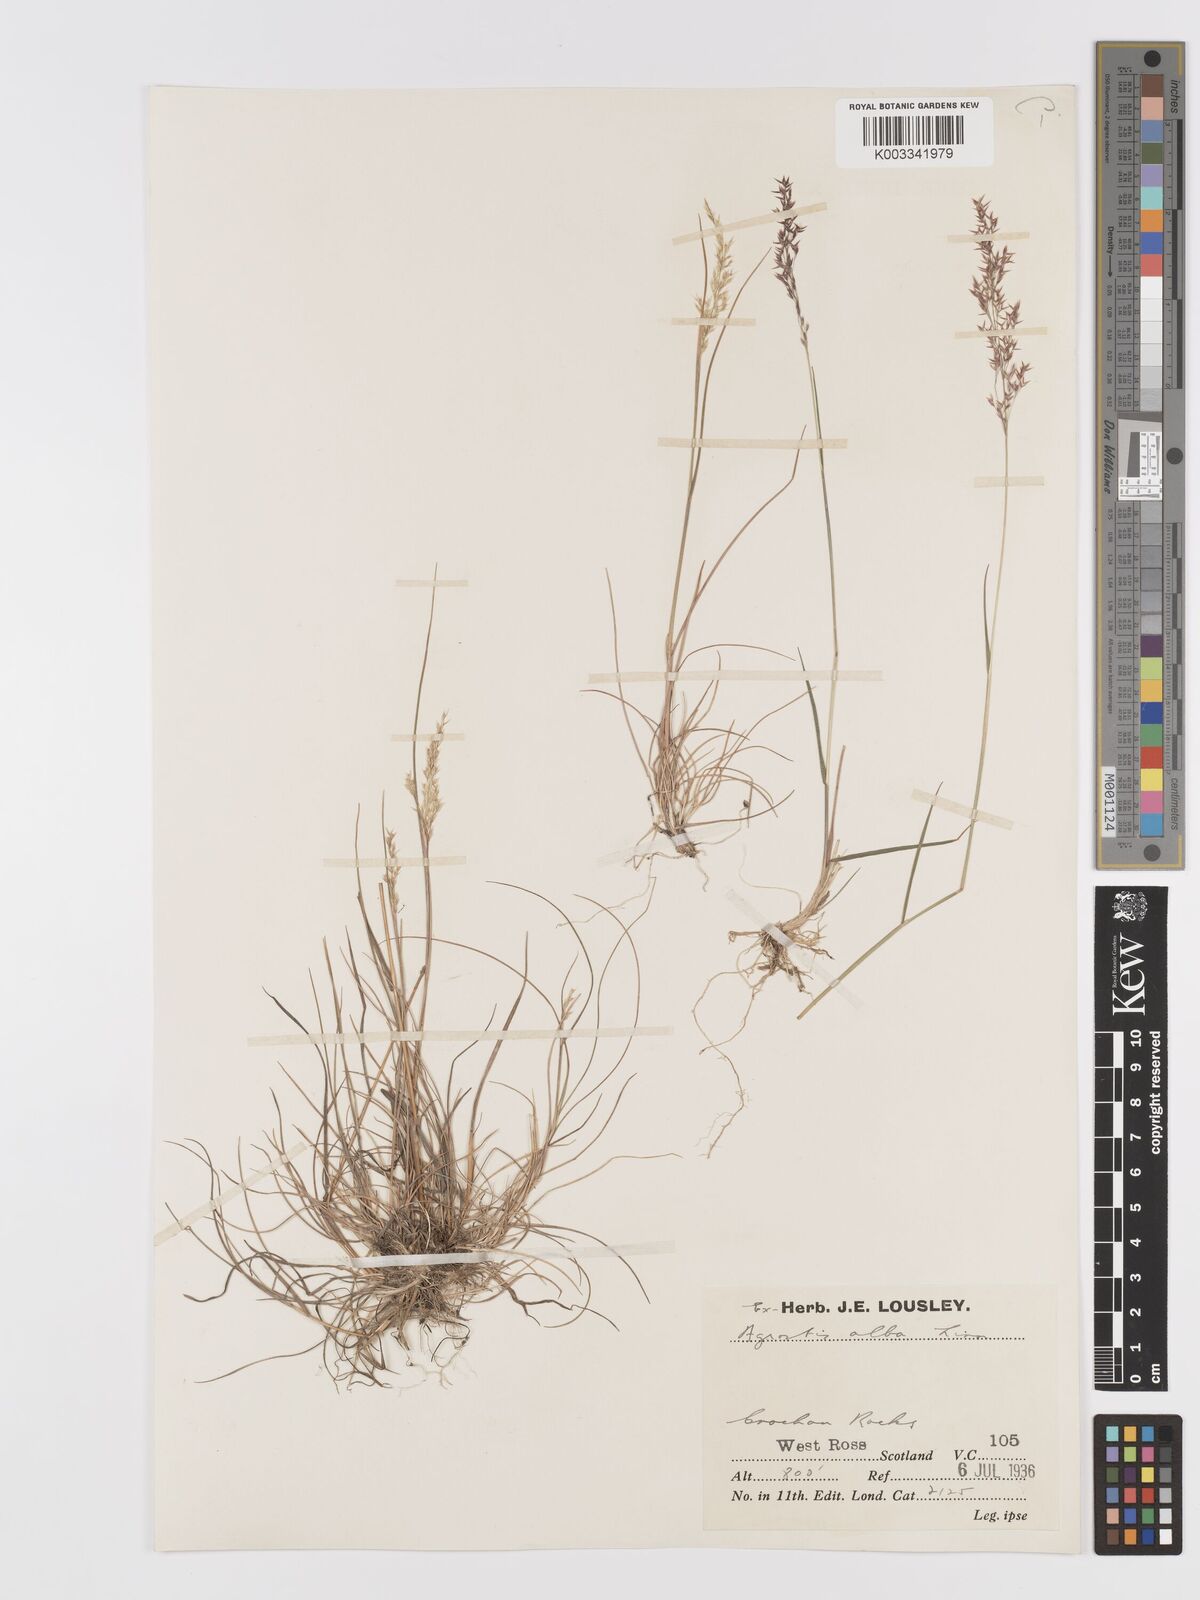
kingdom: Plantae
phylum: Tracheophyta
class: Liliopsida
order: Poales
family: Poaceae
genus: Agrostis
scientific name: Agrostis stolonifera
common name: Creeping bentgrass
